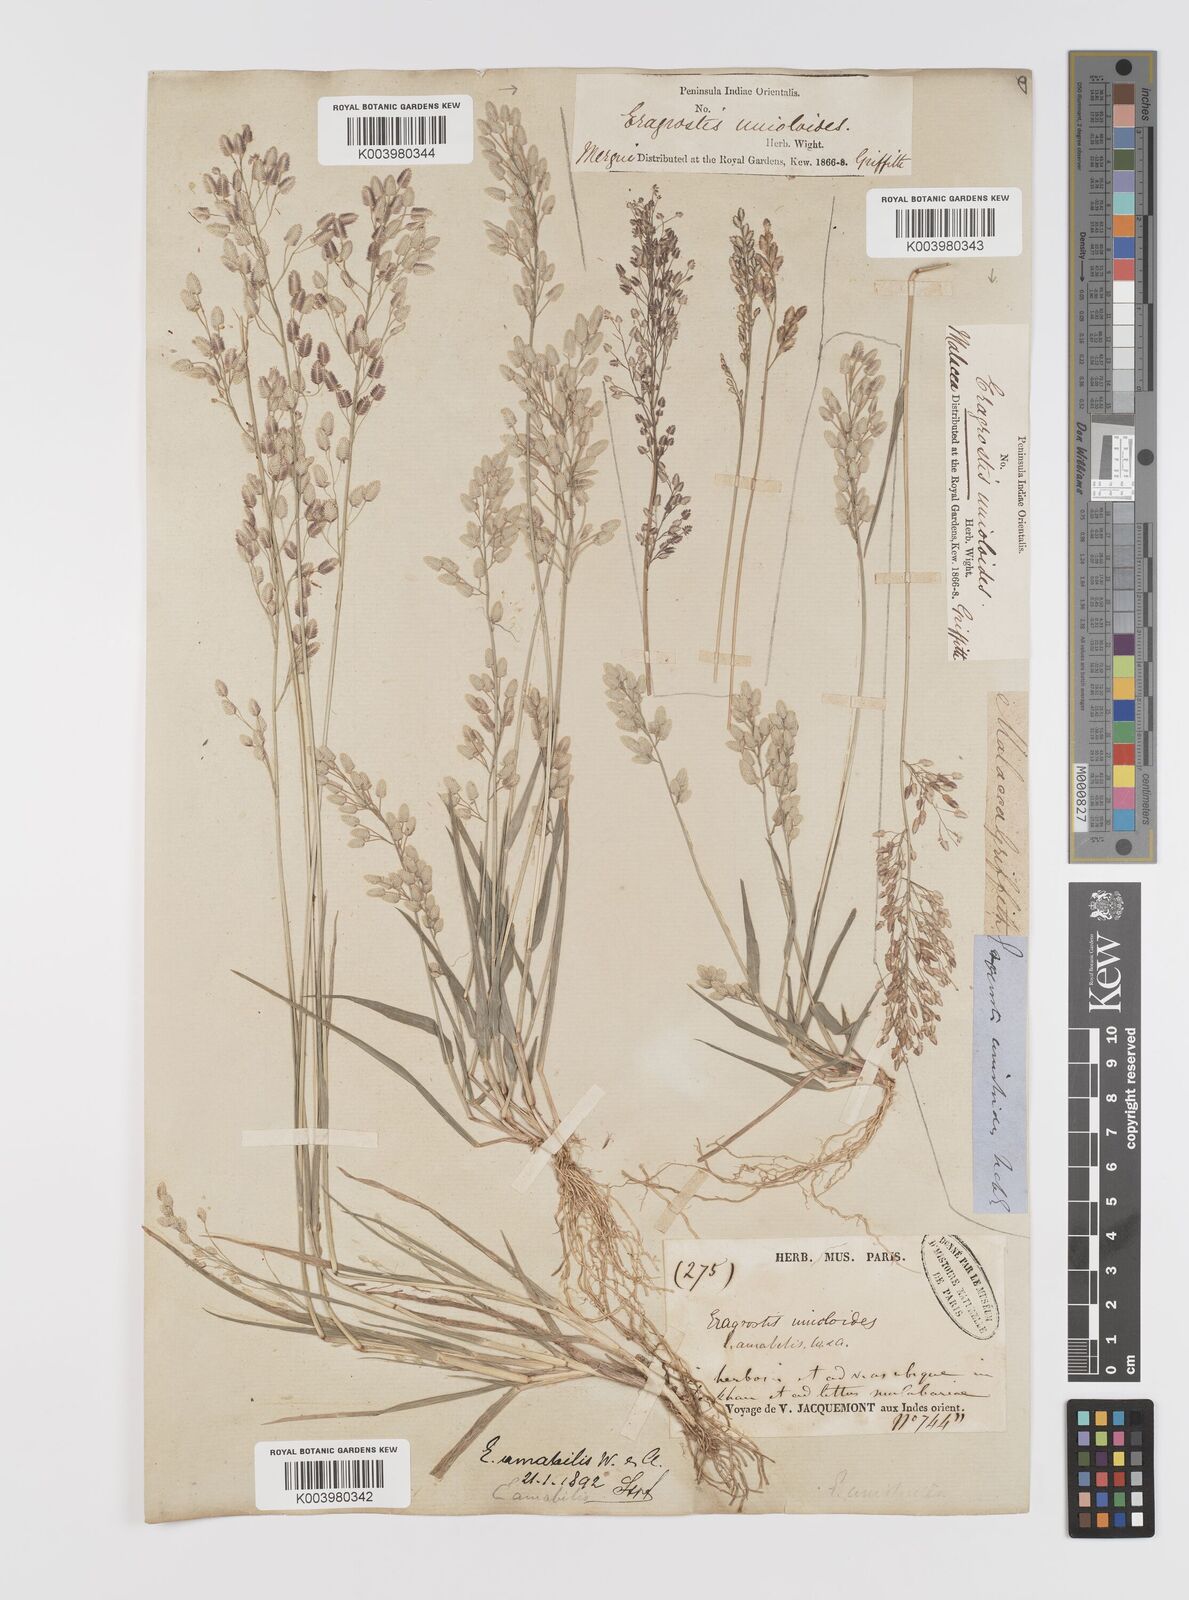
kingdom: Plantae
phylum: Tracheophyta
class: Liliopsida
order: Poales
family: Poaceae
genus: Eragrostis
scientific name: Eragrostis unioloides
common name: Chinese lovegrass
